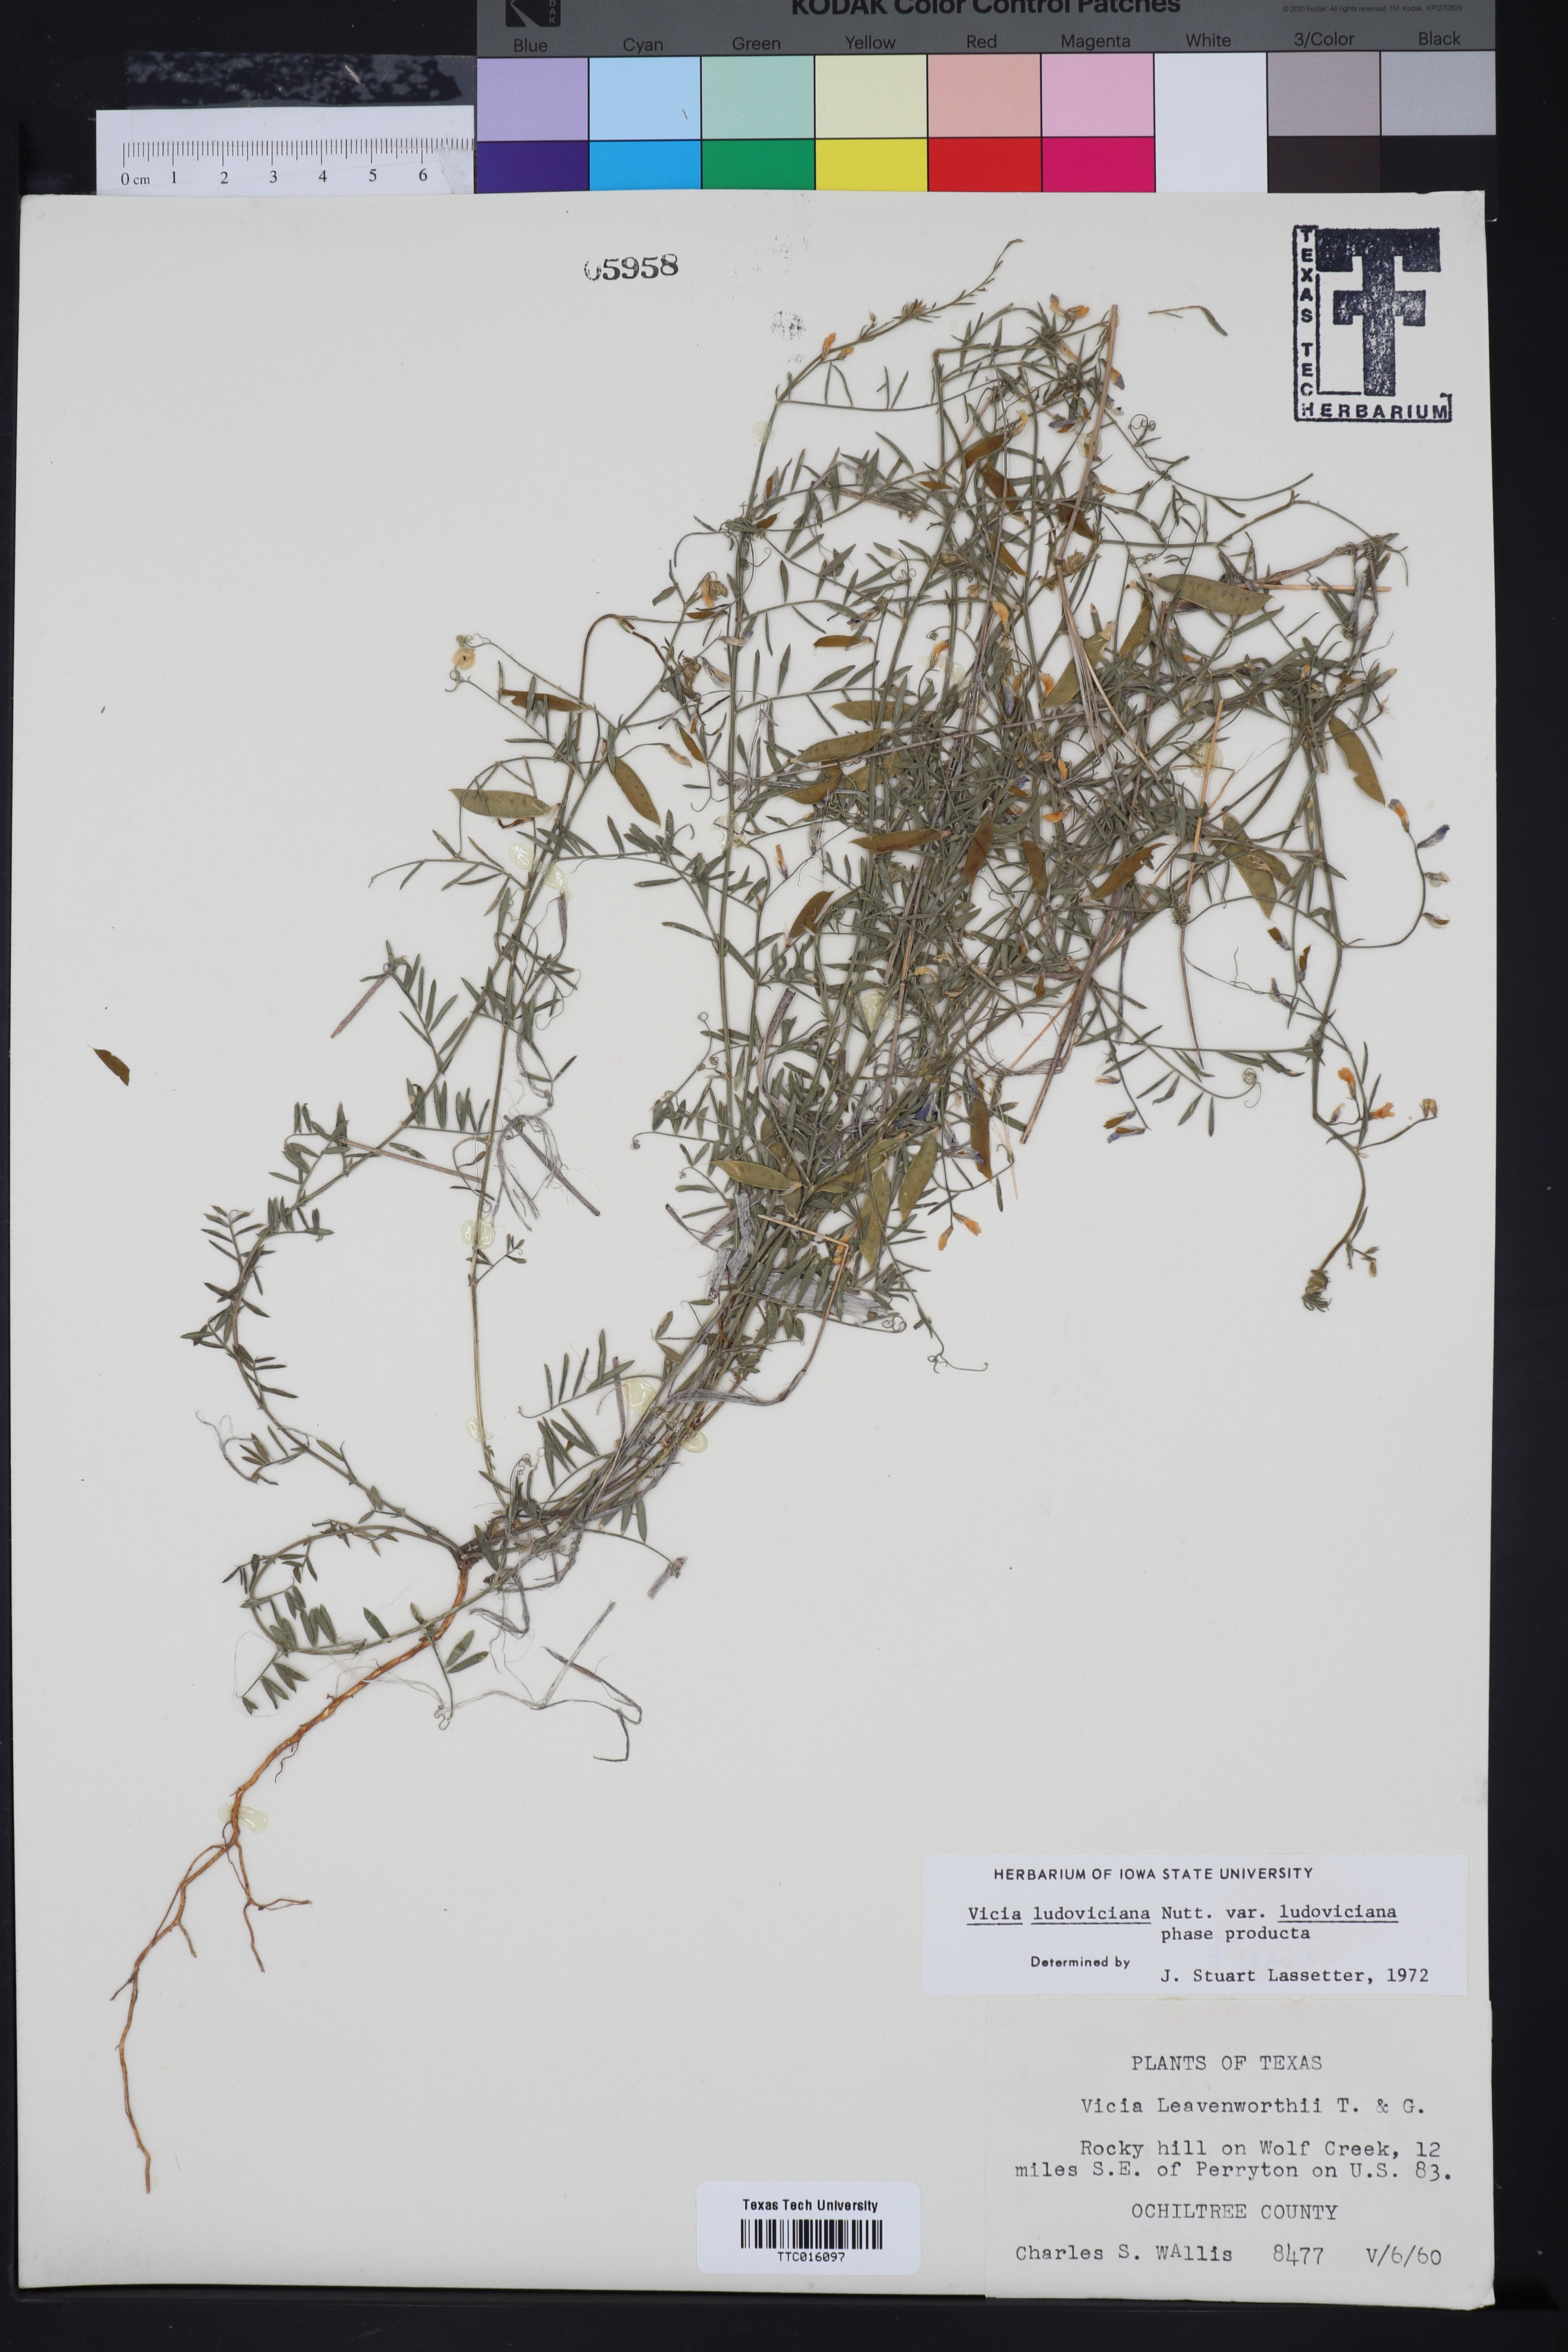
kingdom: Plantae
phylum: Tracheophyta
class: Magnoliopsida
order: Fabales
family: Fabaceae
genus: Vicia
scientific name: Vicia ludoviciana
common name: Louisiana vetch
